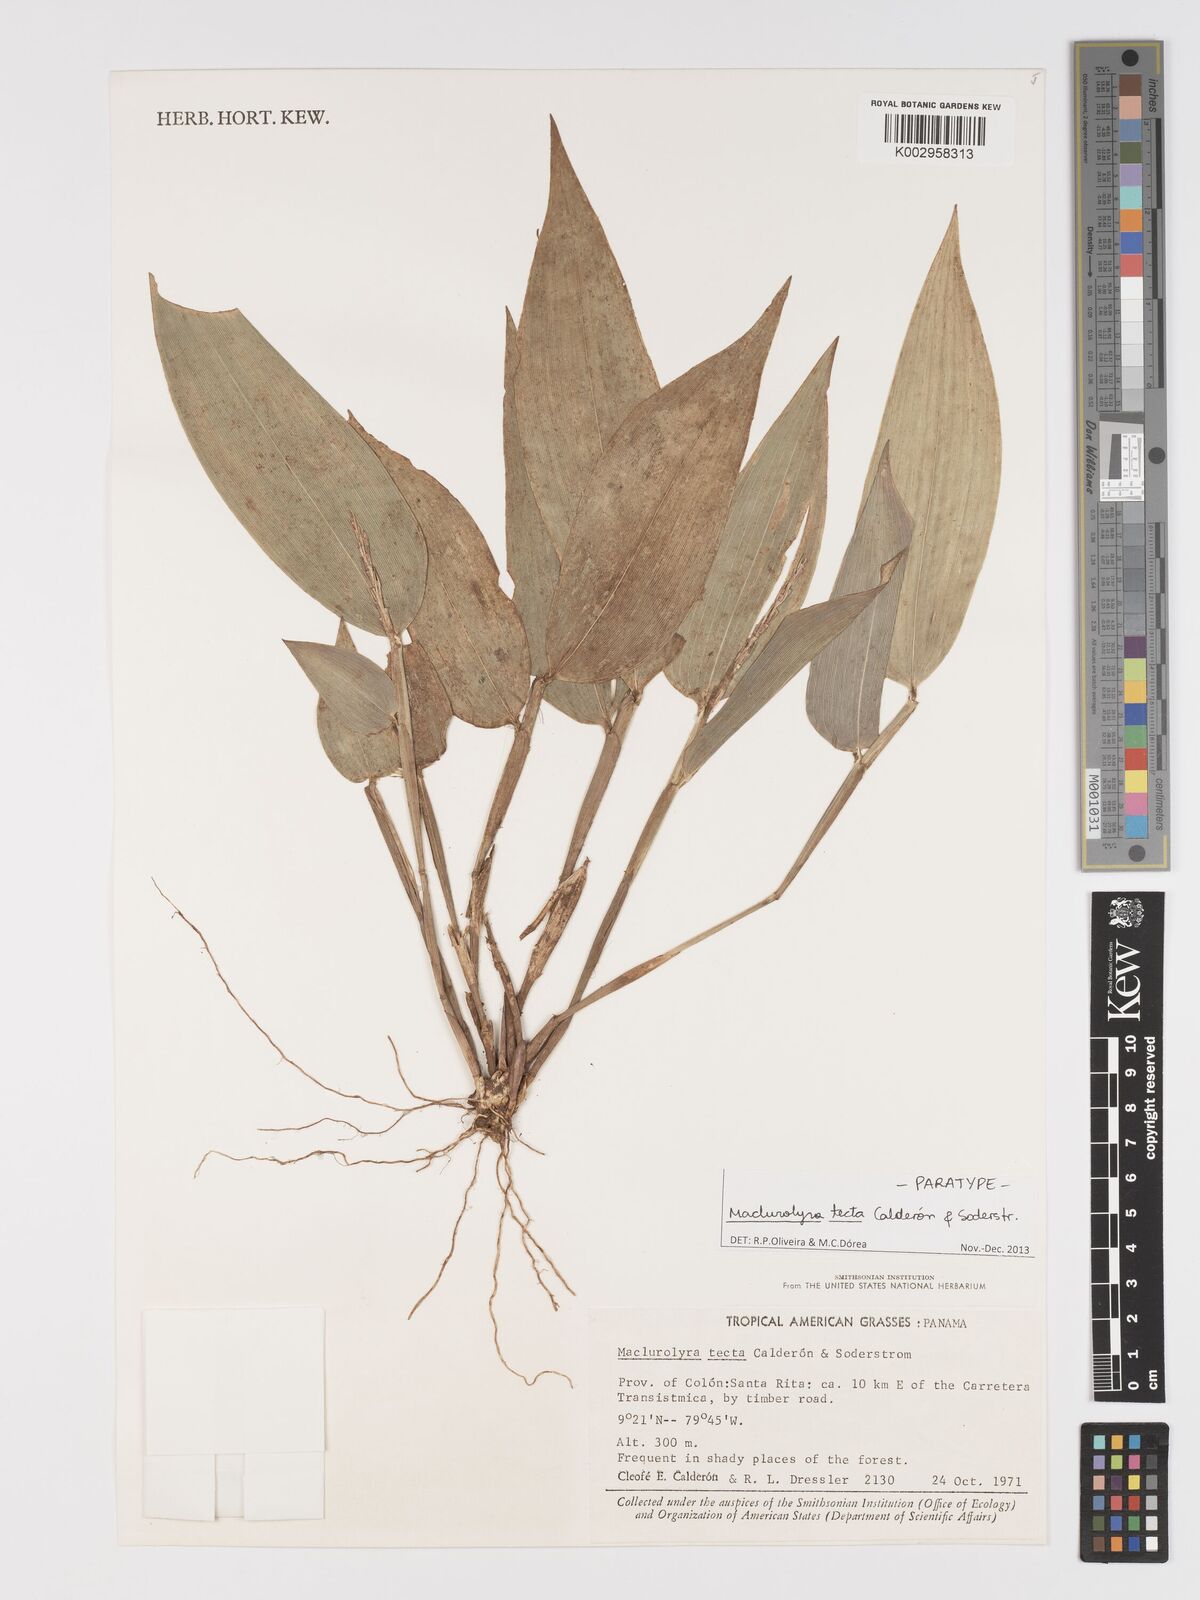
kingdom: Plantae
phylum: Tracheophyta
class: Liliopsida
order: Poales
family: Poaceae
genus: Maclurolyra
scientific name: Maclurolyra tecta
